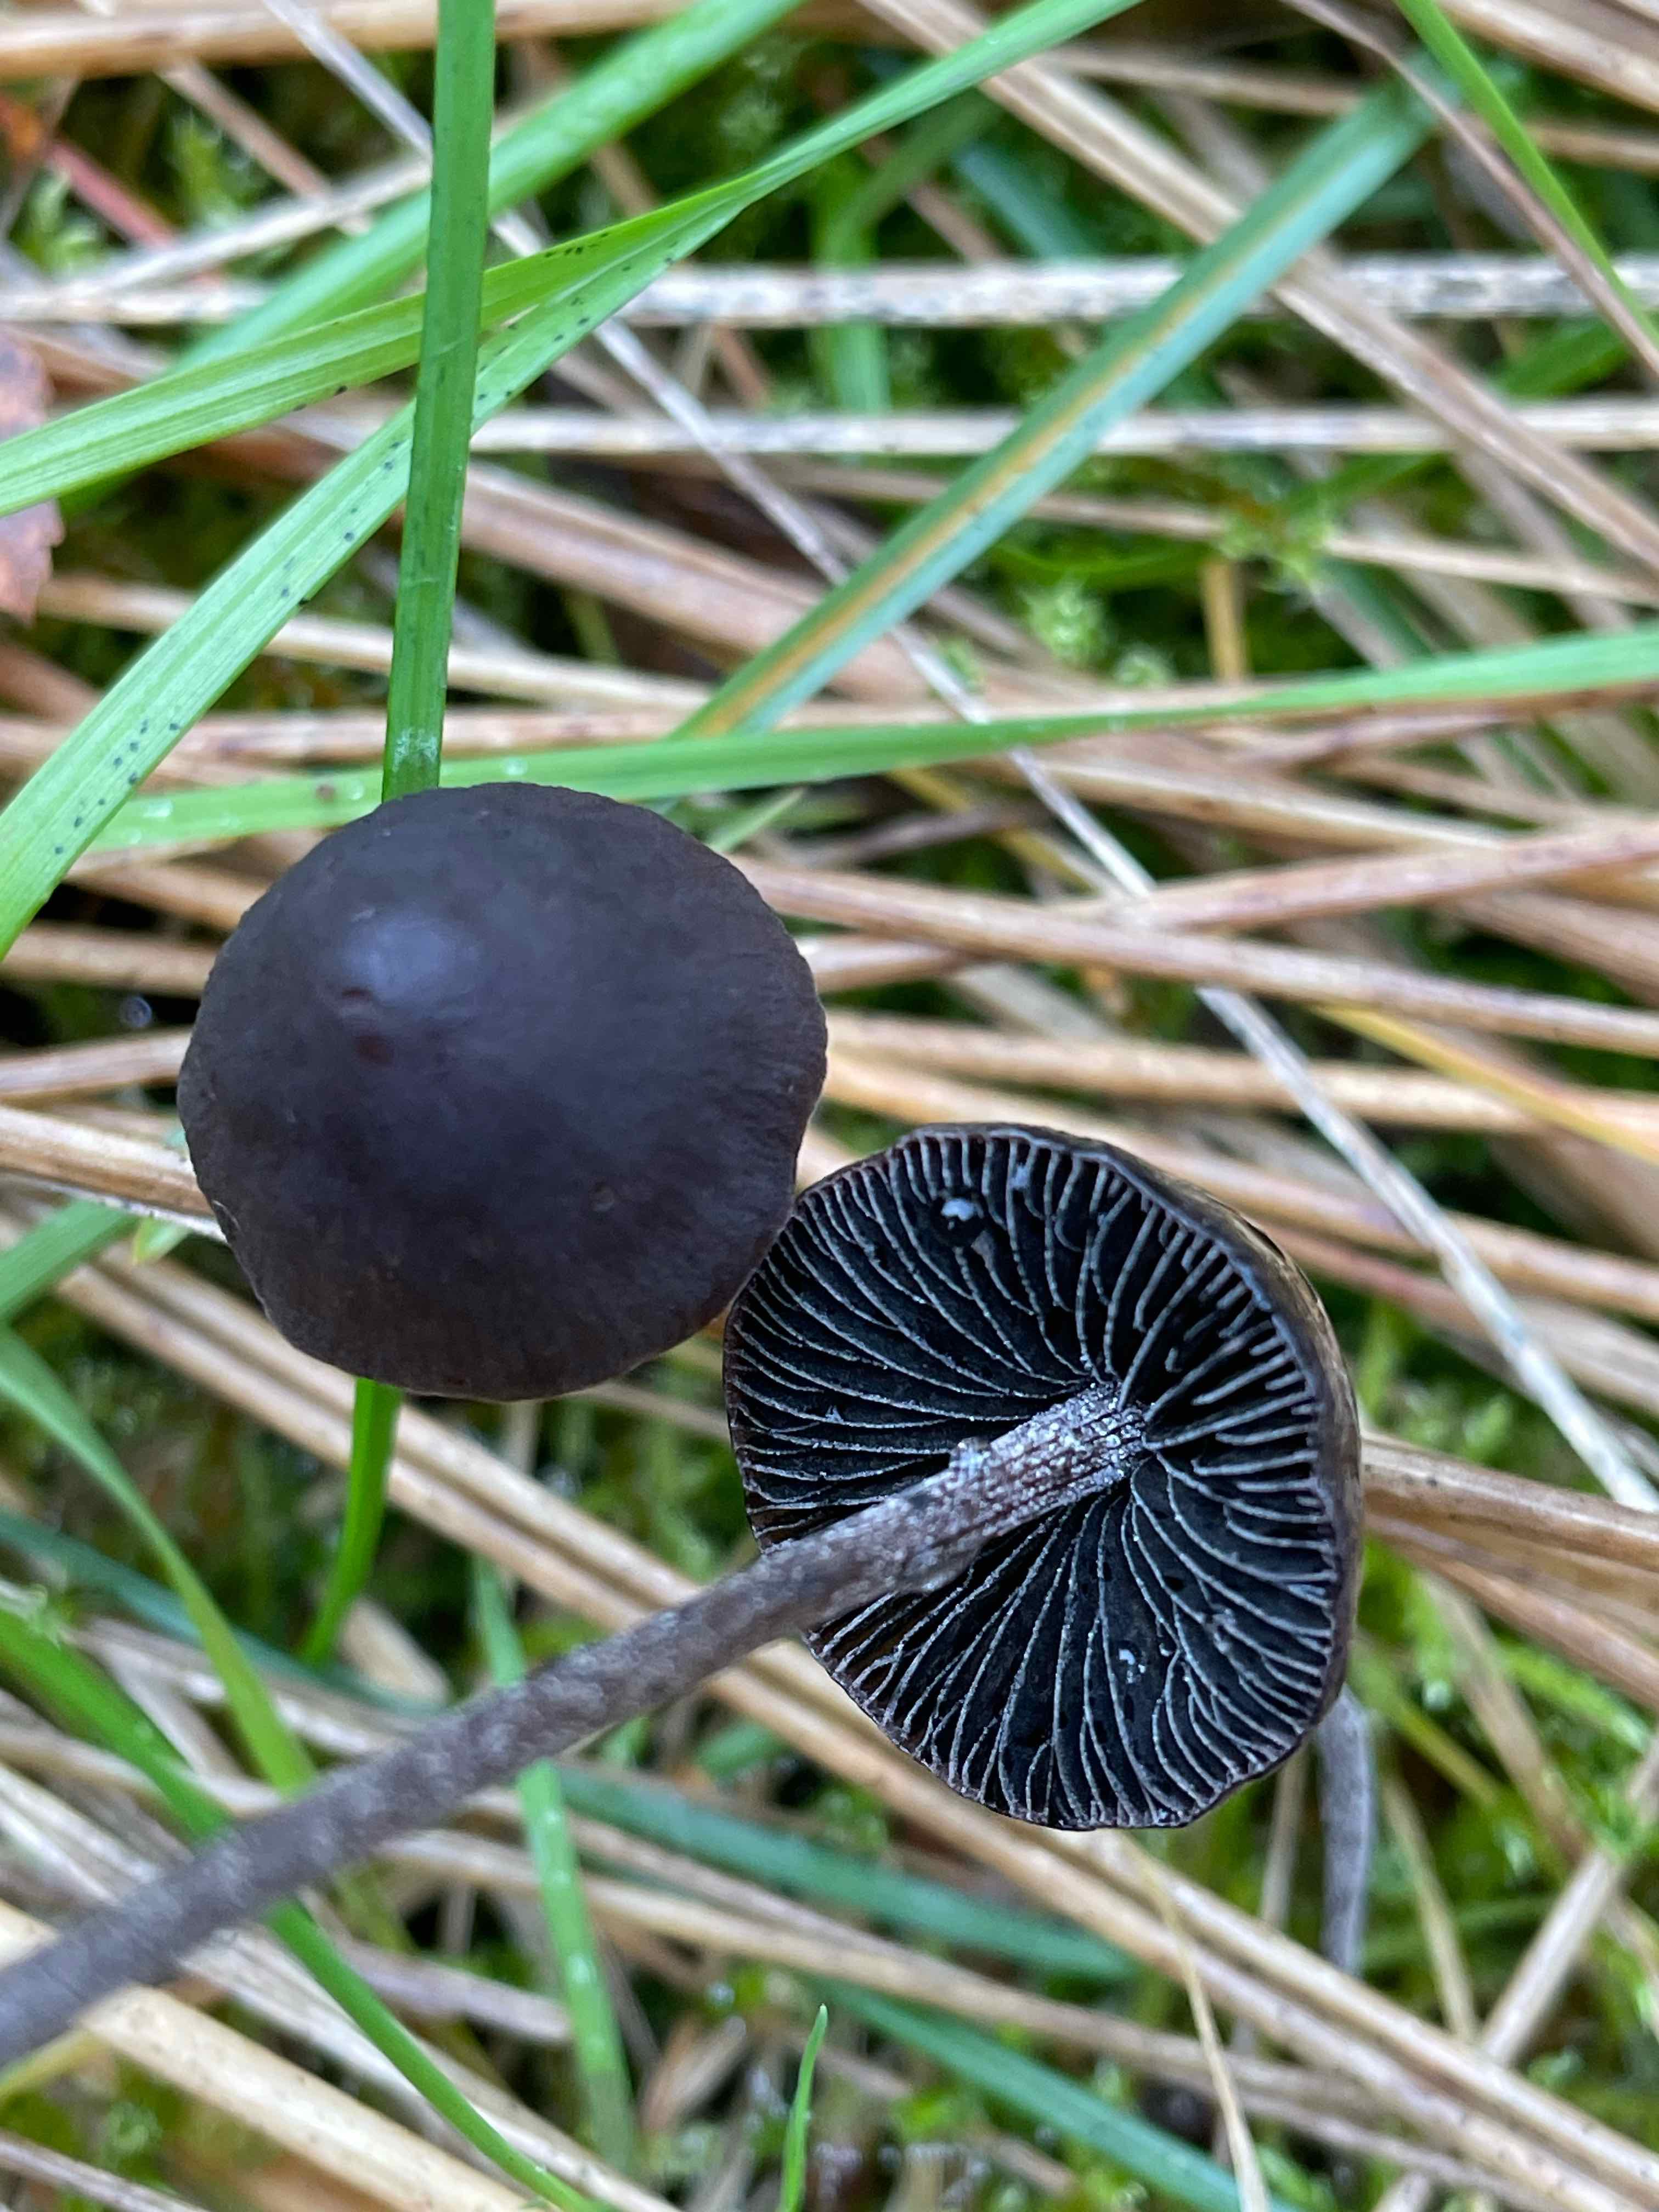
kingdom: Fungi
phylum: Basidiomycota
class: Agaricomycetes
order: Agaricales
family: Bolbitiaceae
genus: Panaeolus
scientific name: Panaeolus acuminatus
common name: høj glanshat
